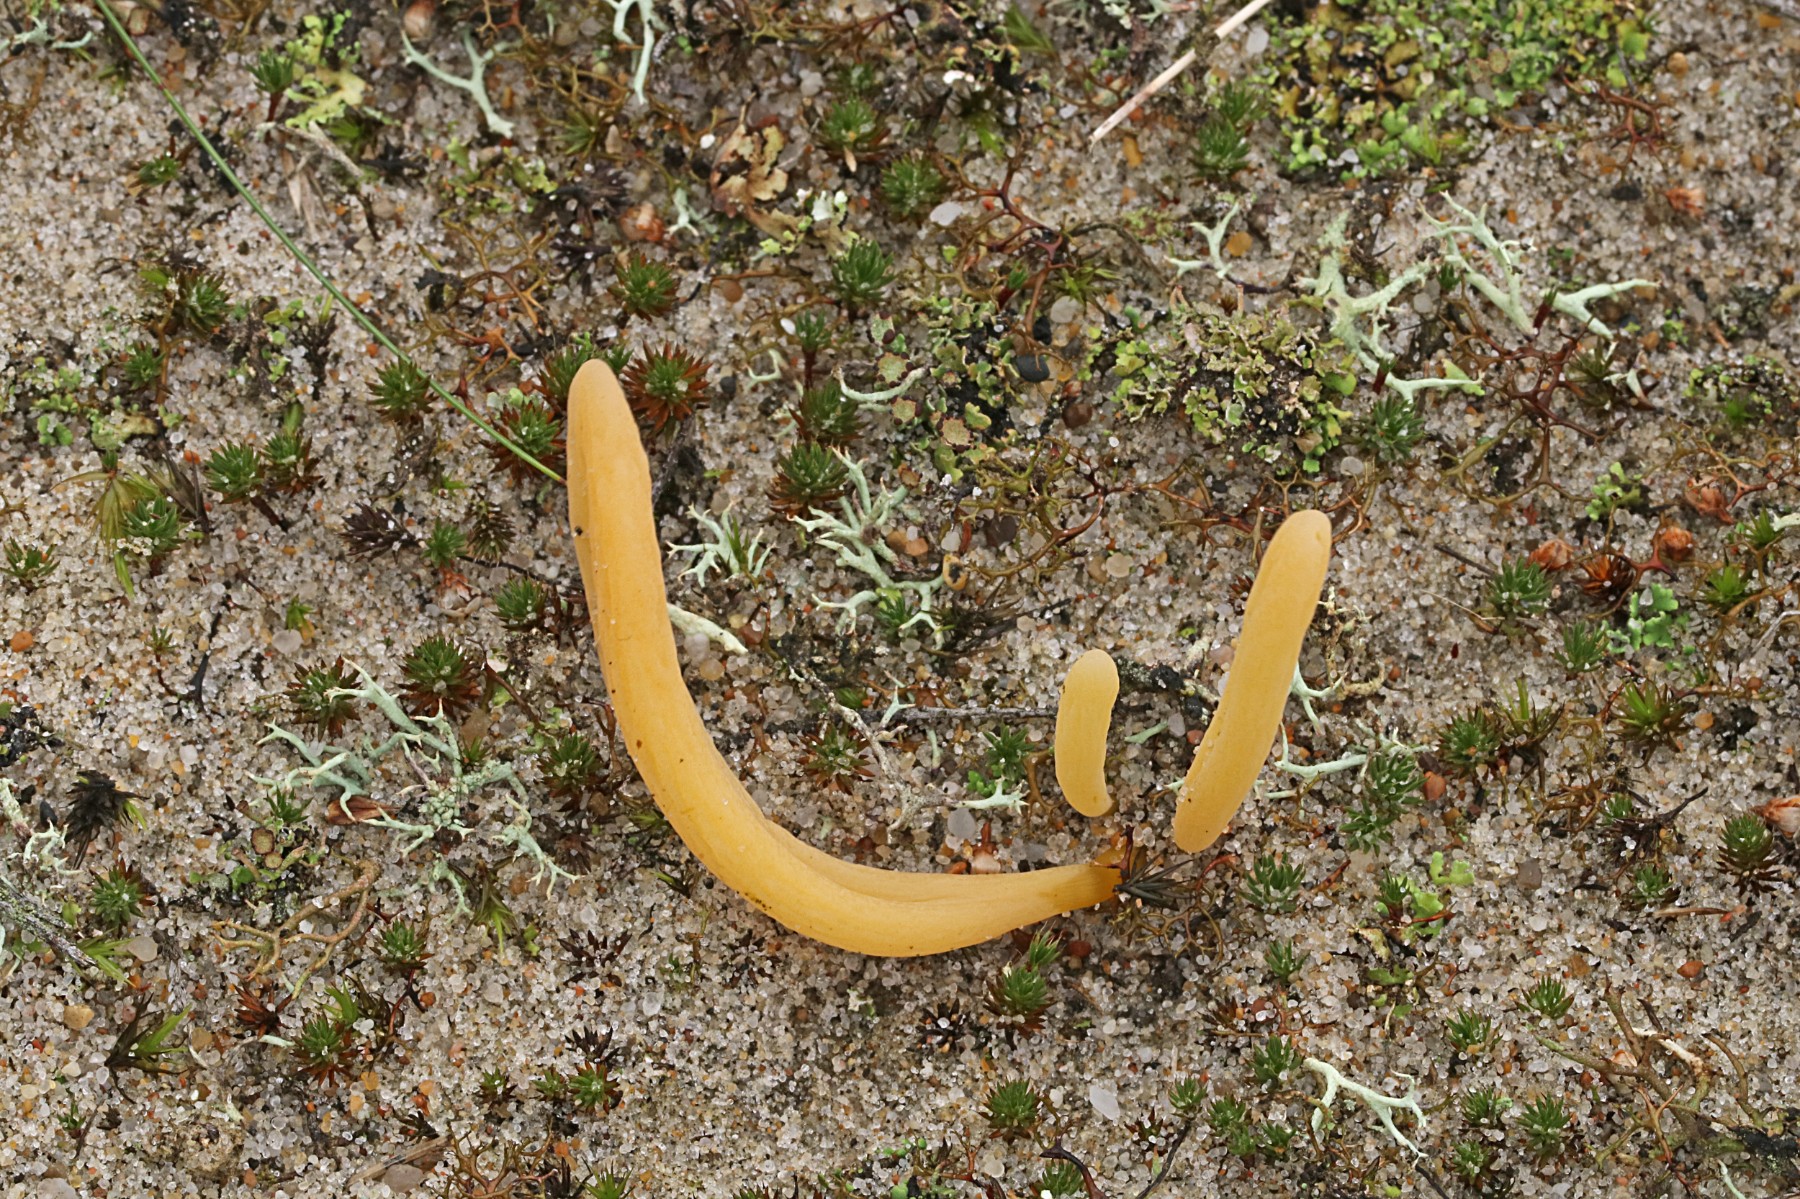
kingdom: Fungi
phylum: Basidiomycota
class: Agaricomycetes
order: Agaricales
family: Clavariaceae
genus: Clavaria
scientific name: Clavaria argillacea
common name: lerfarvet køllesvamp
